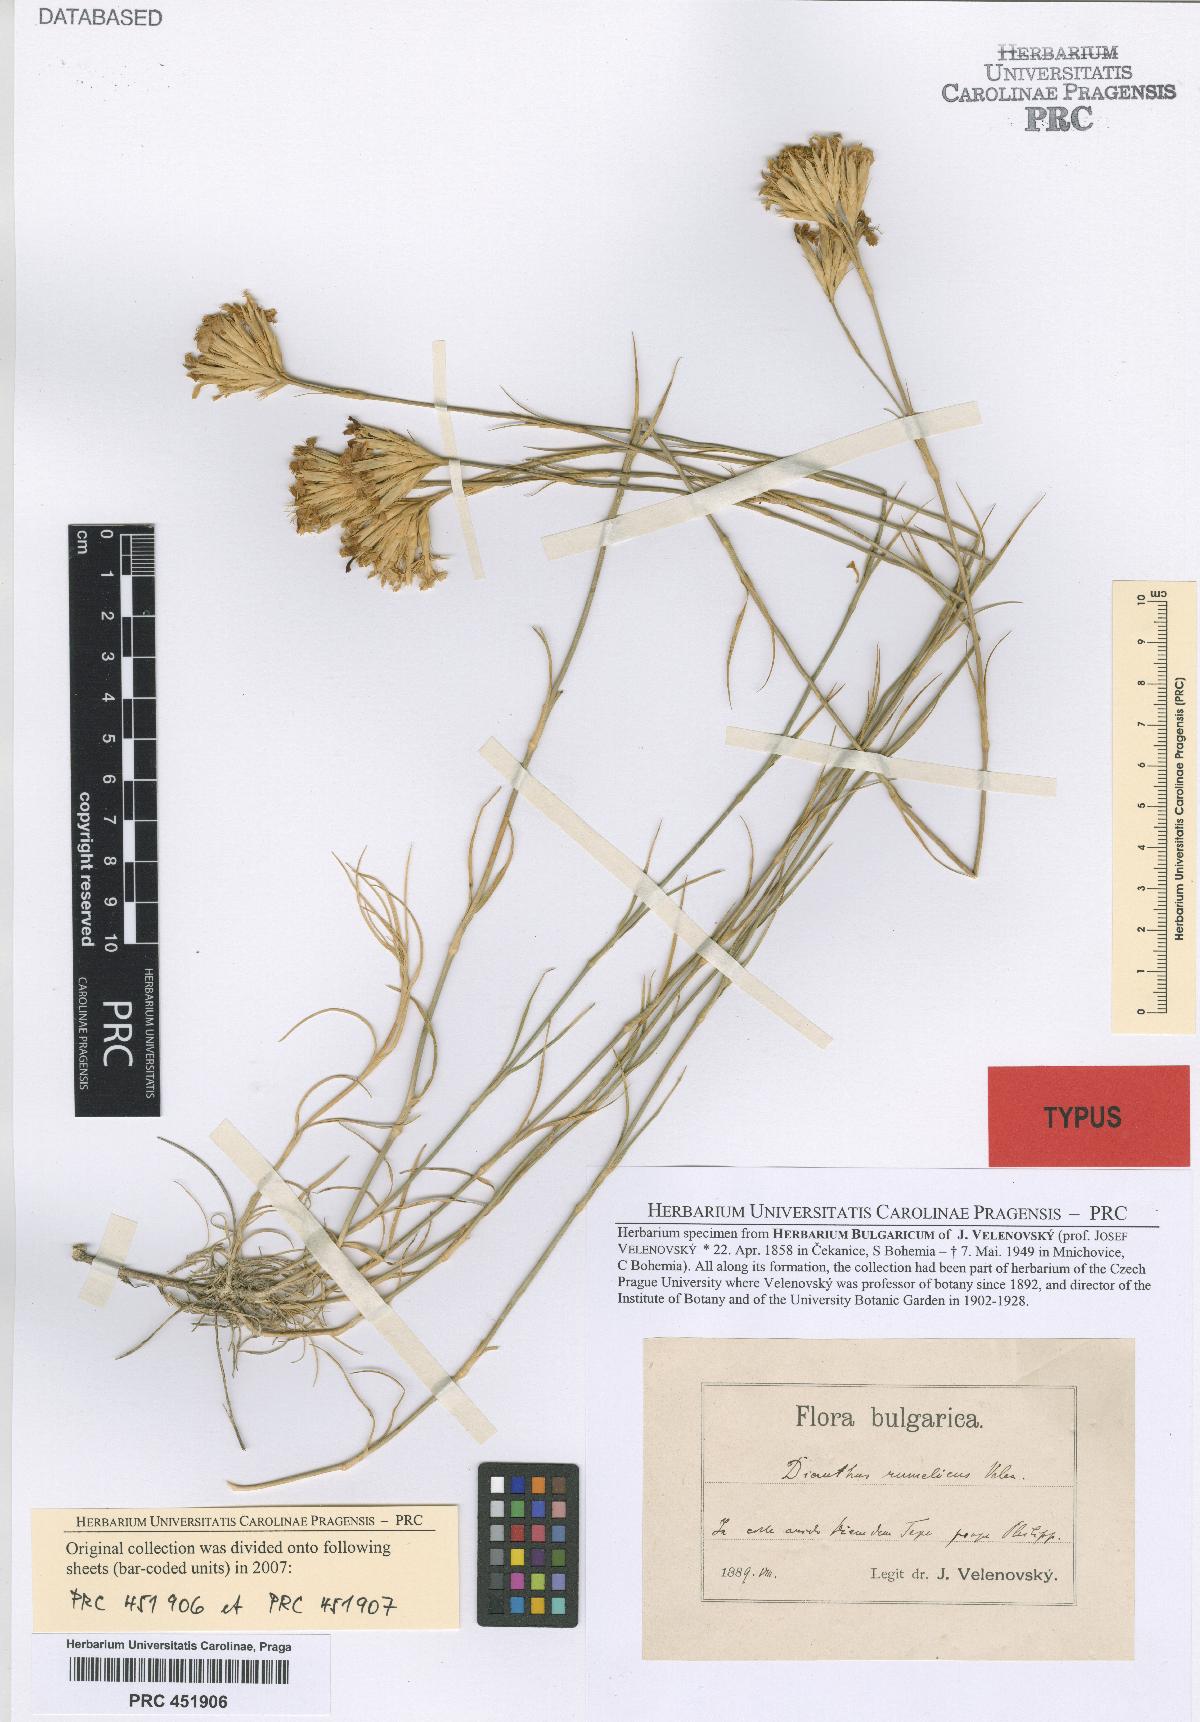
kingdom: Plantae
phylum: Tracheophyta
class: Magnoliopsida
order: Caryophyllales
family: Caryophyllaceae
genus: Dianthus
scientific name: Dianthus pinifolius
